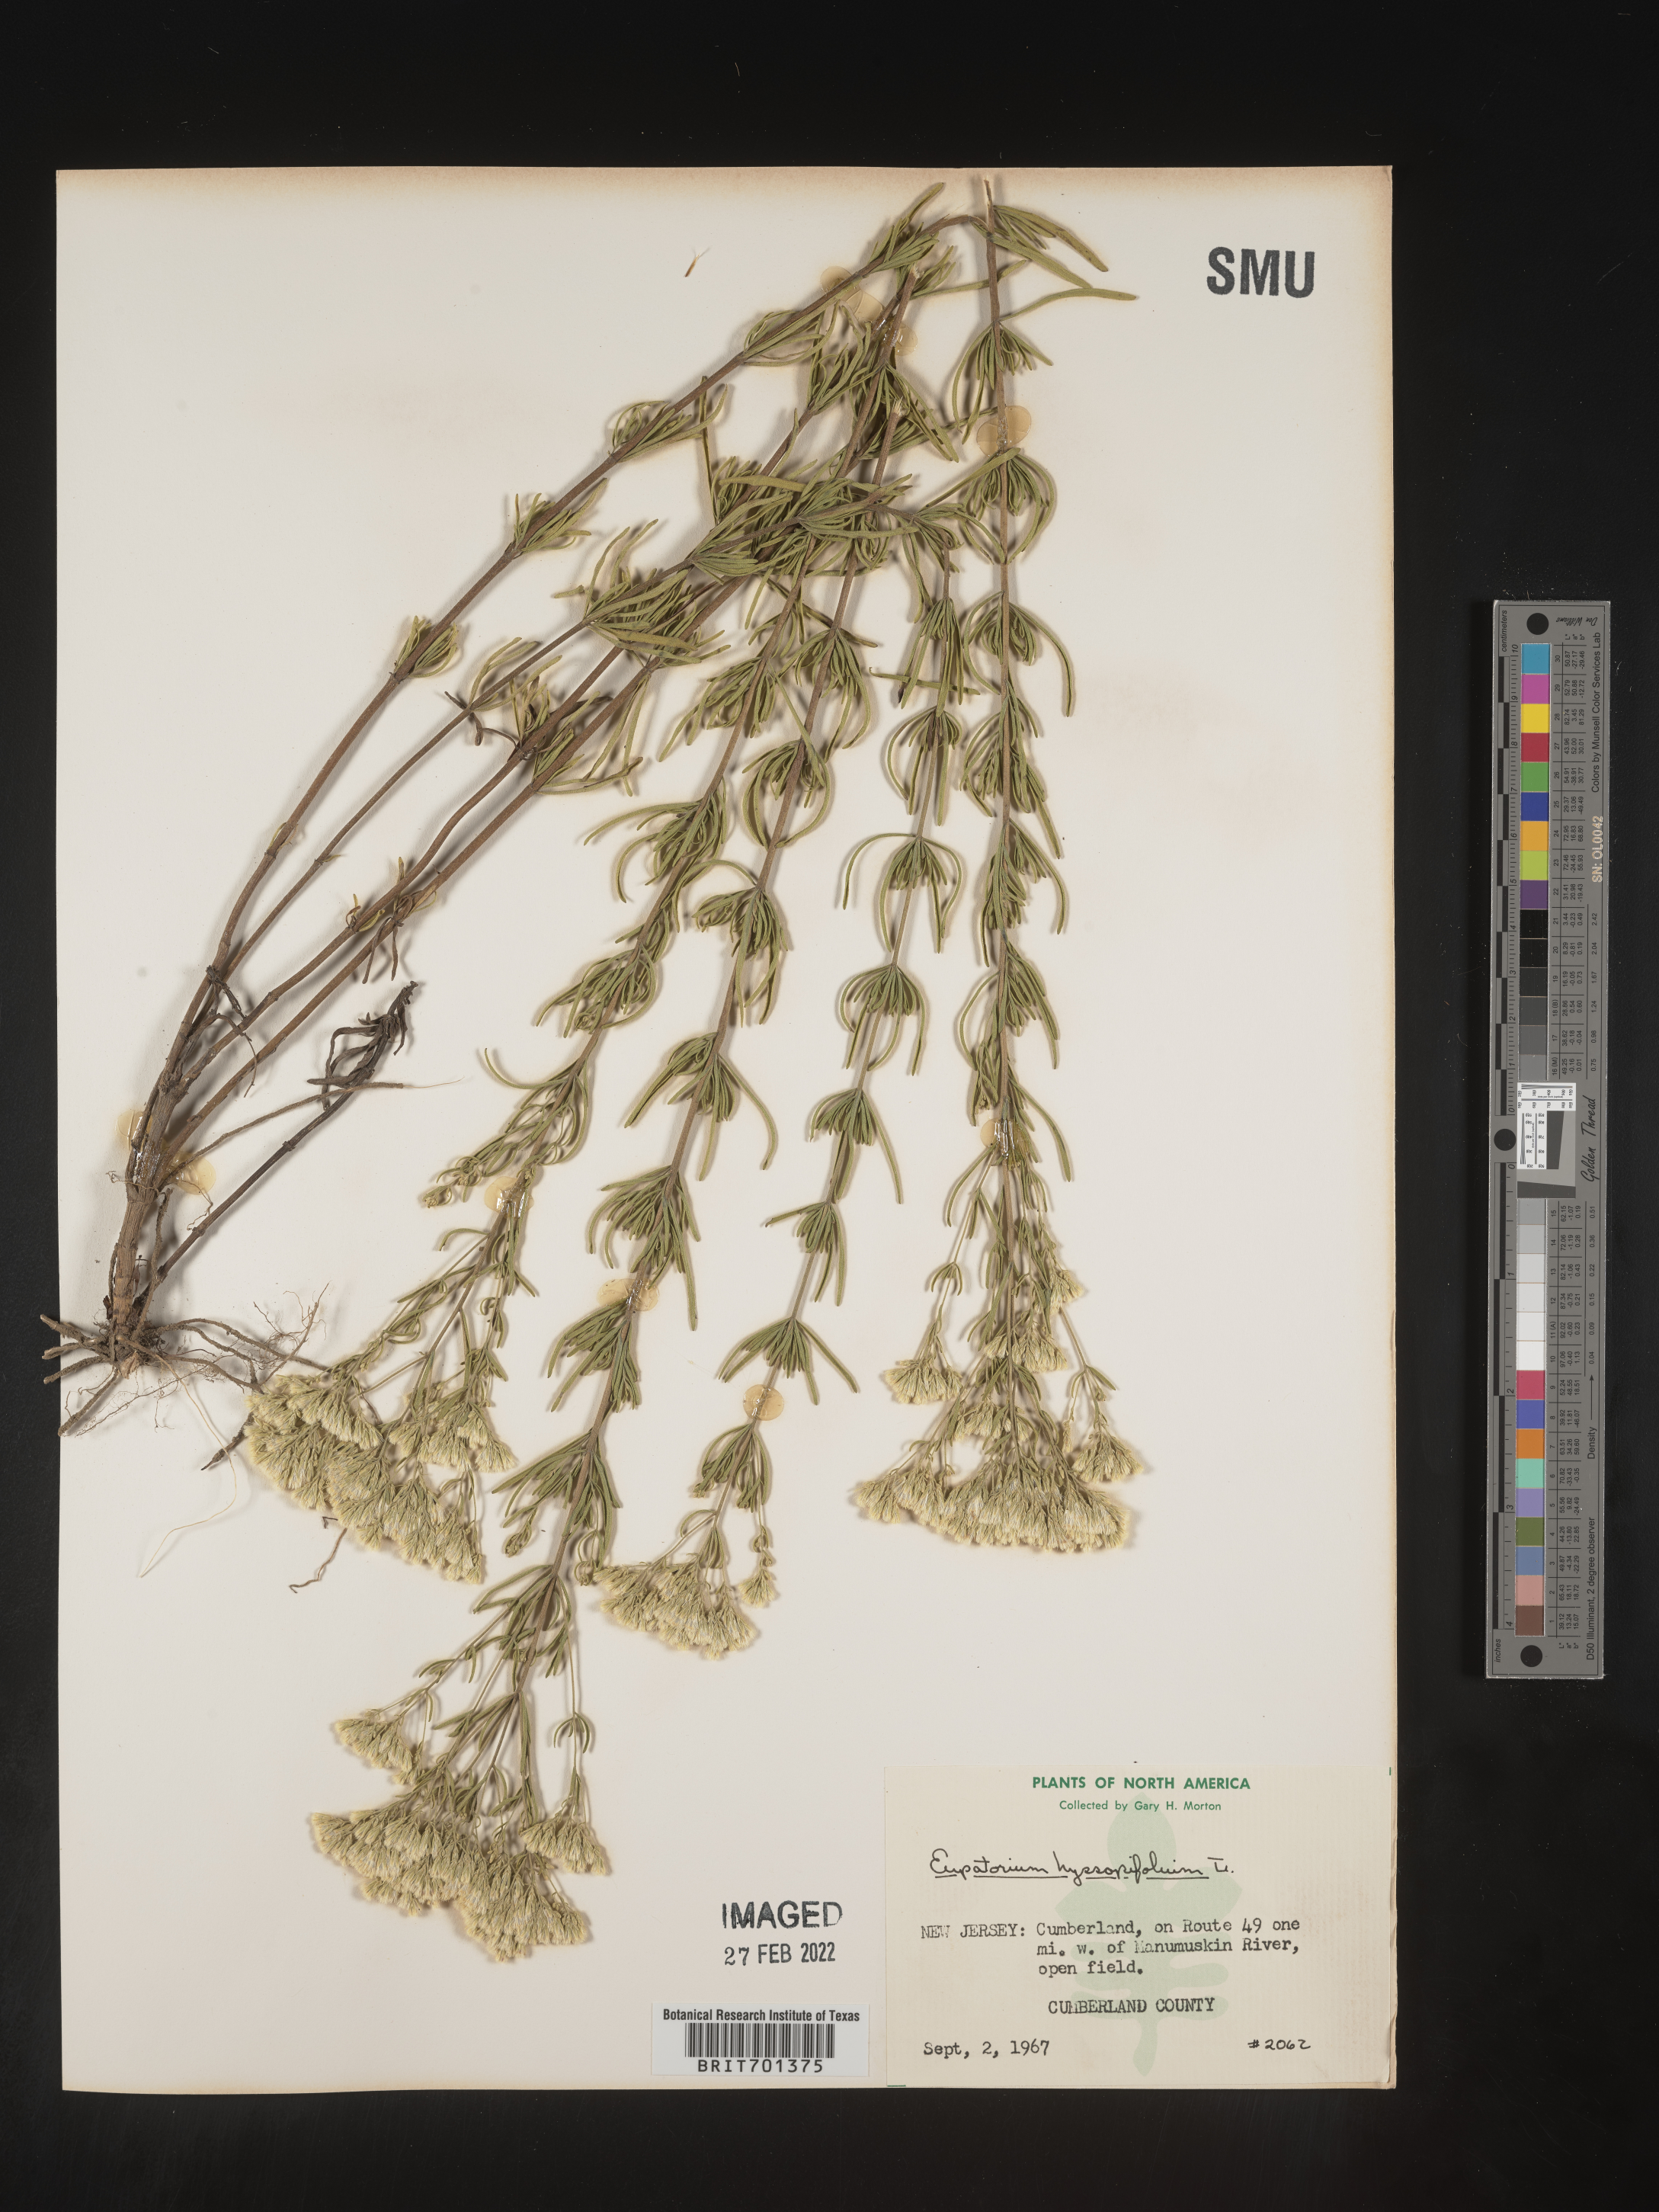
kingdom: Plantae
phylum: Tracheophyta
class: Magnoliopsida
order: Asterales
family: Asteraceae
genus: Eupatorium
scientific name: Eupatorium hyssopifolium
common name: Hyssop-leaf thoroughwort
